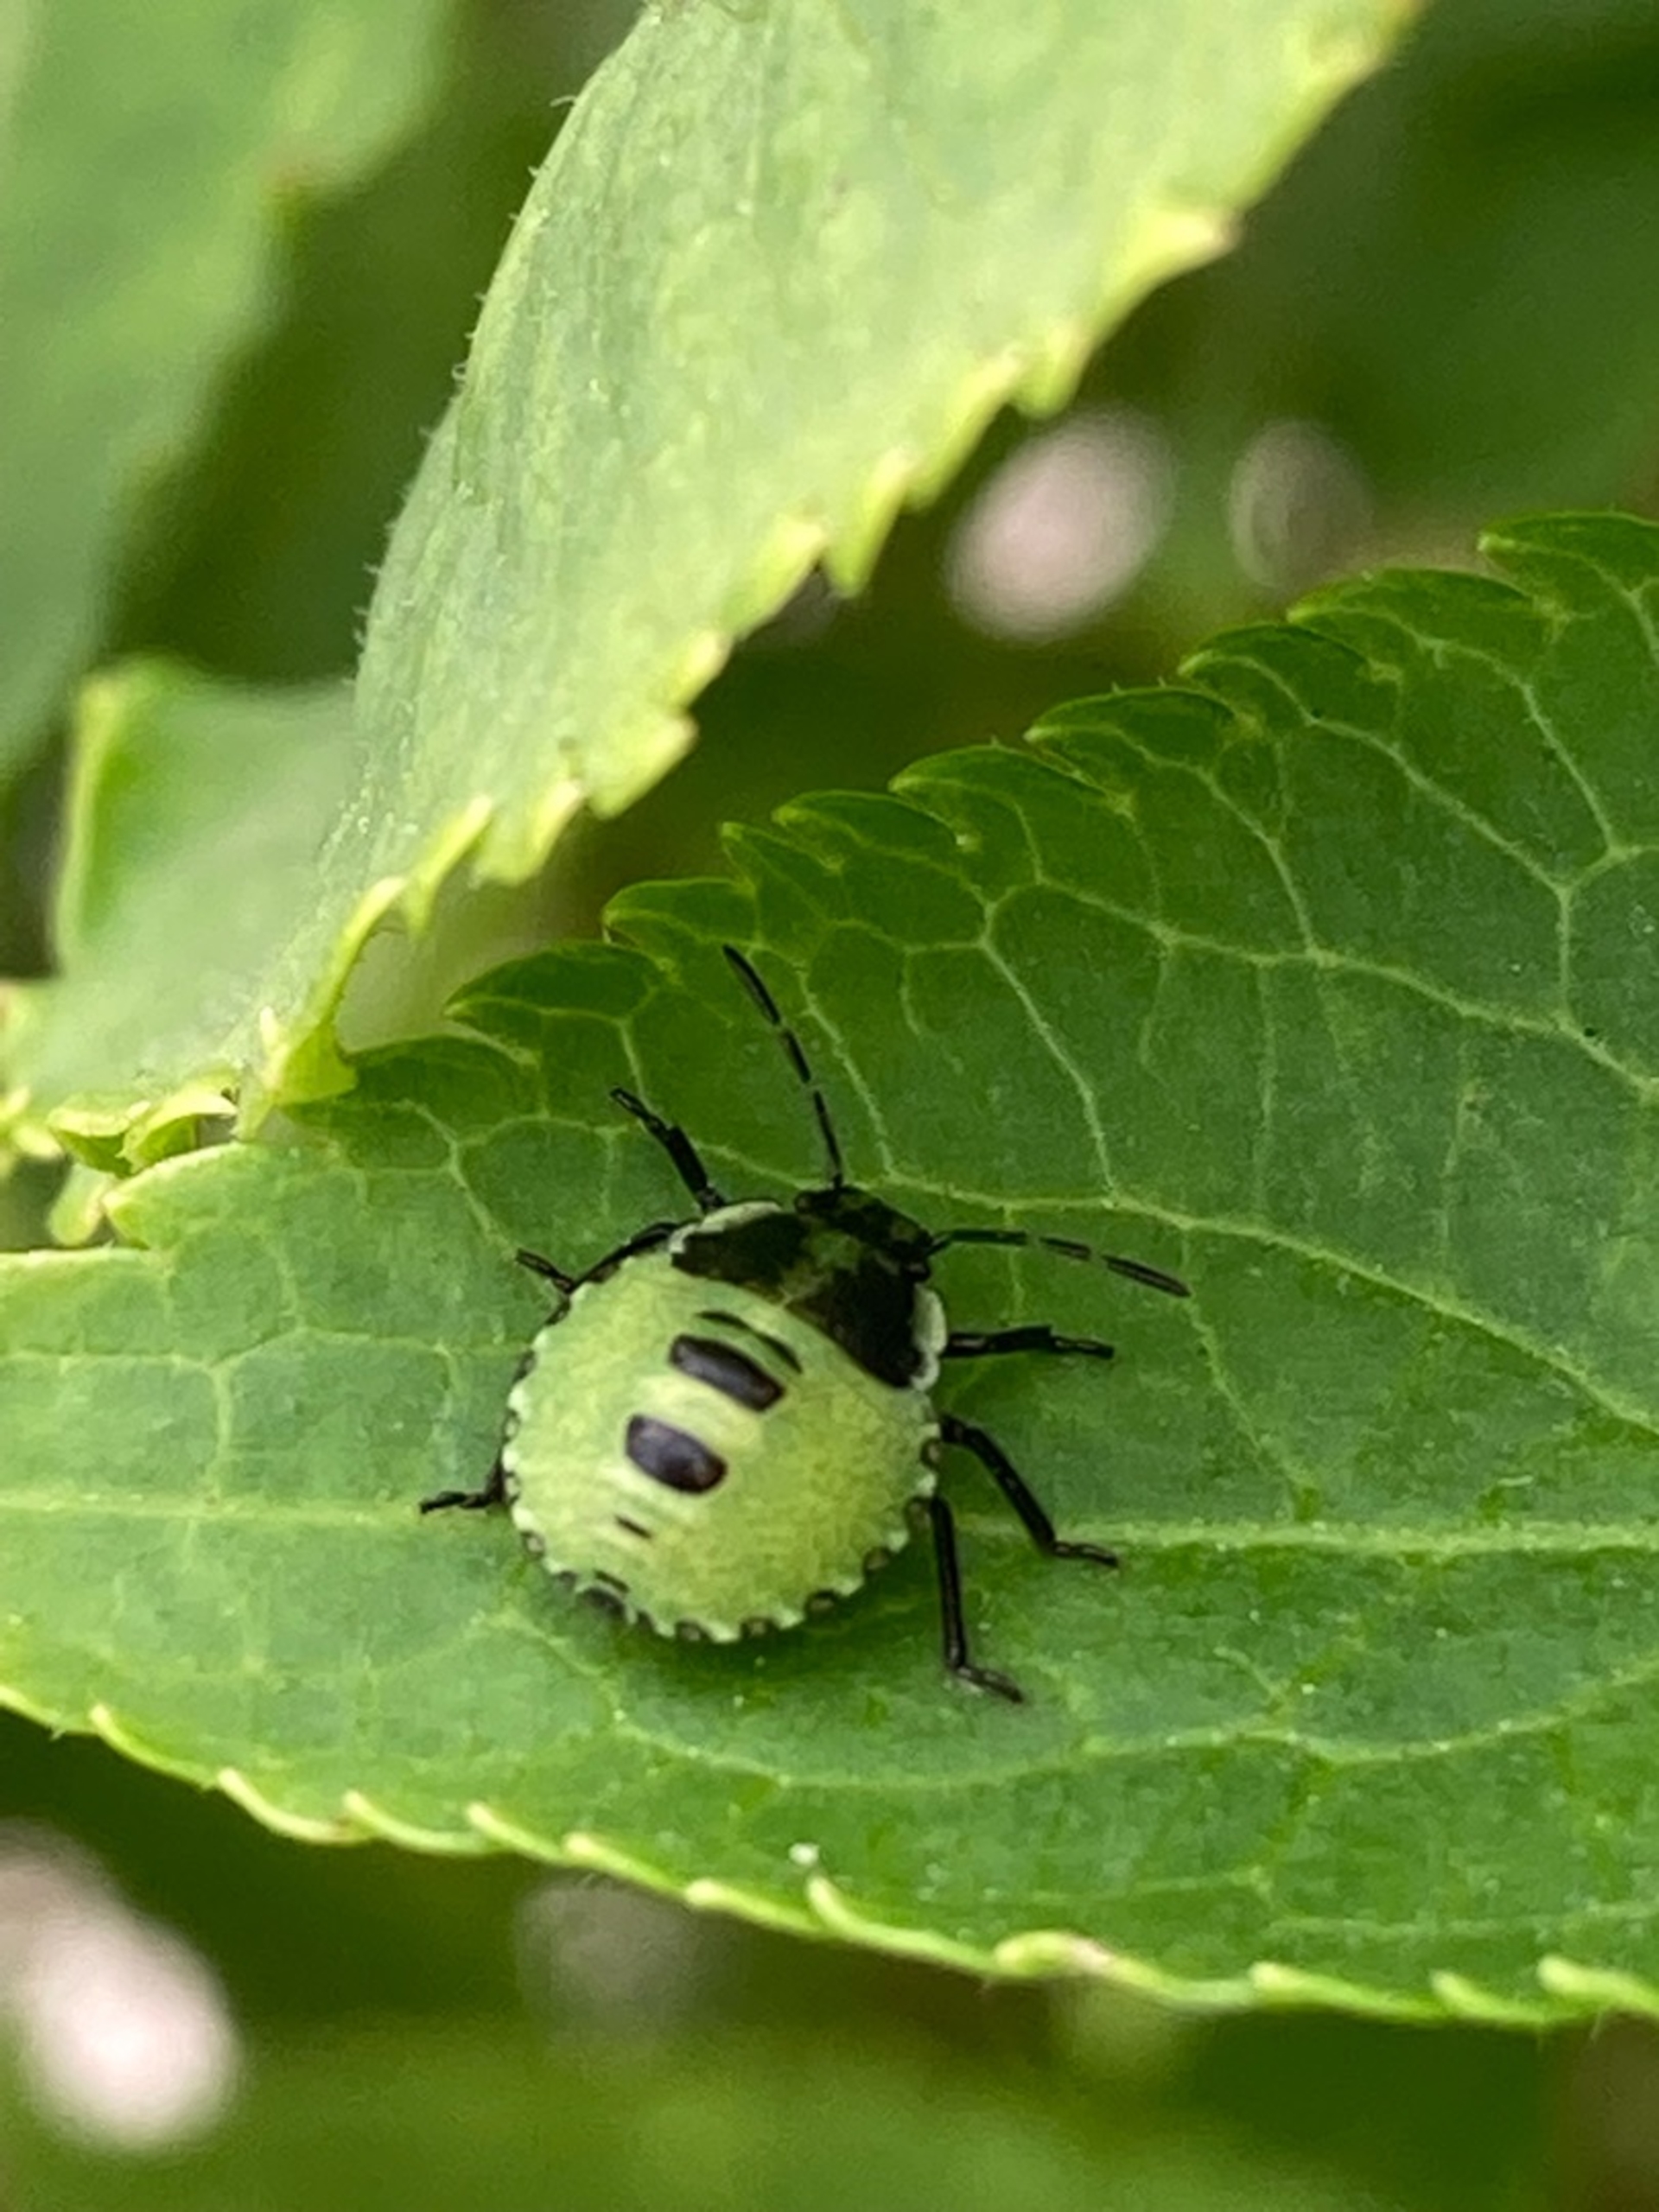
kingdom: Animalia
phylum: Arthropoda
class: Insecta
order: Hemiptera
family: Pentatomidae
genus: Palomena
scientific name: Palomena prasina
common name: Grøn bredtæge
